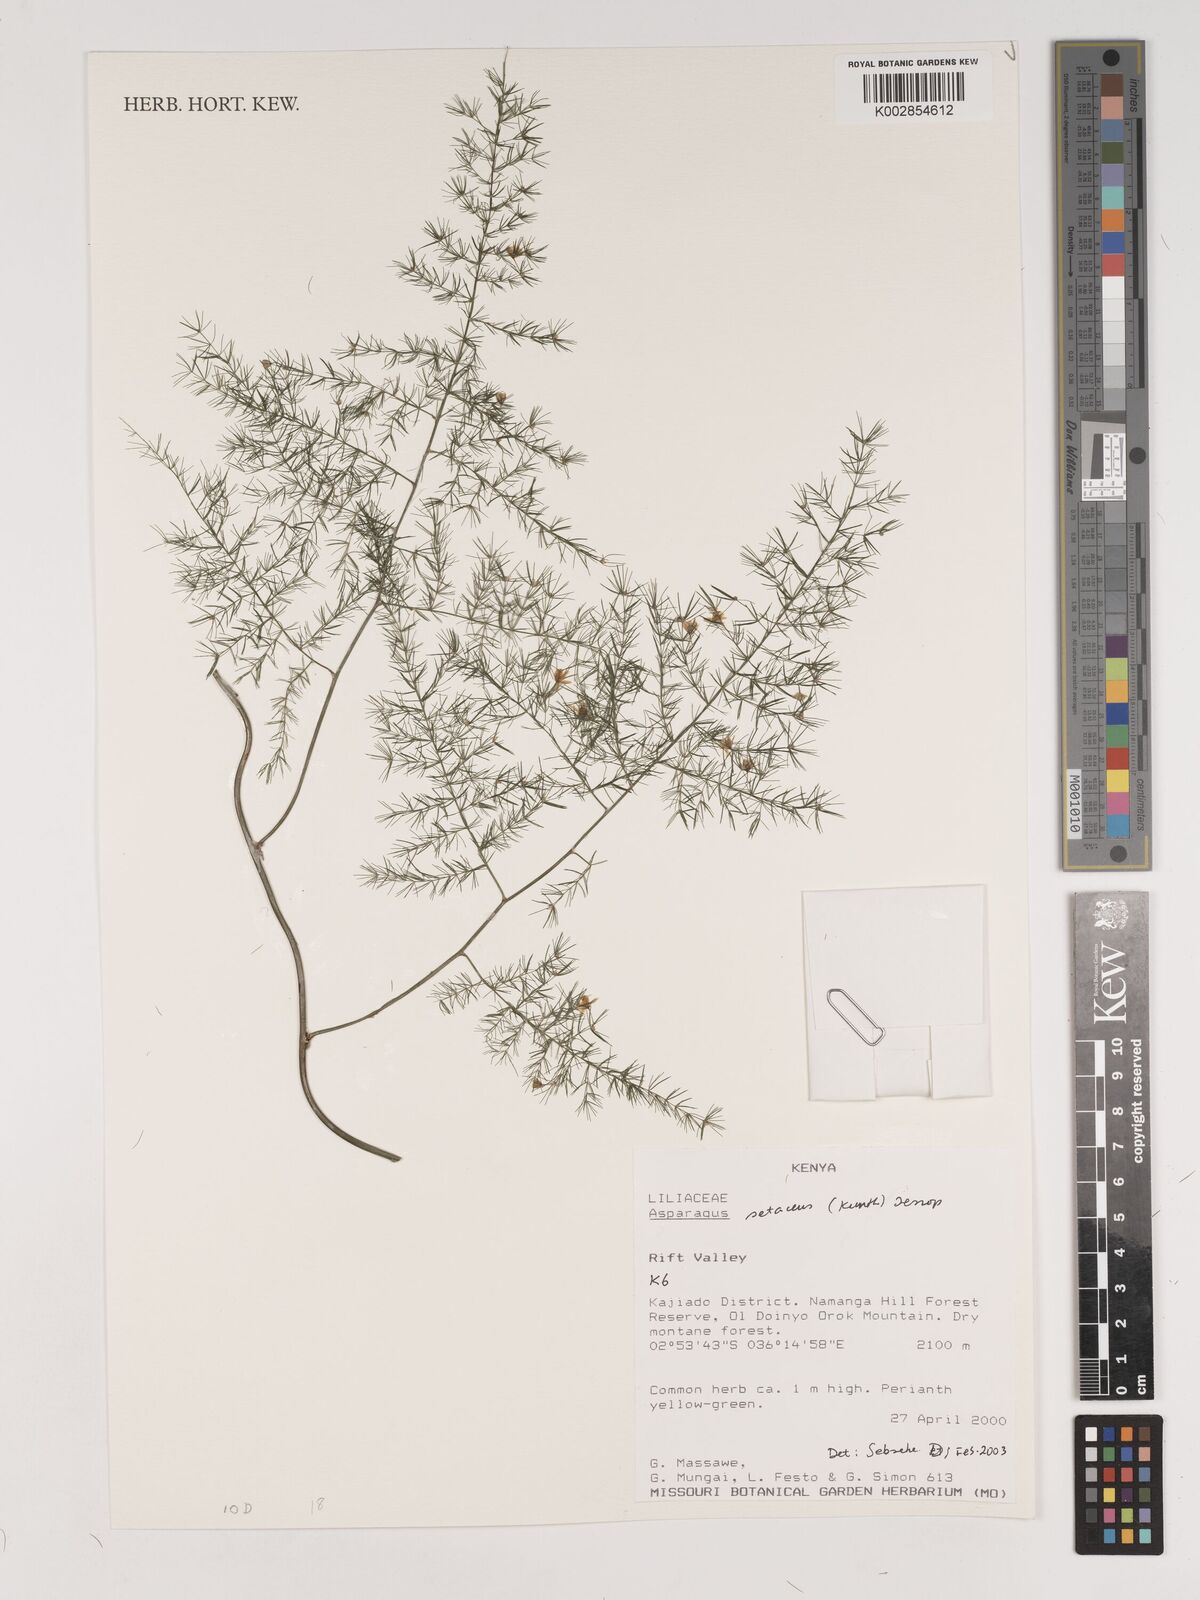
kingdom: Plantae
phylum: Tracheophyta
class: Liliopsida
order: Asparagales
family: Asparagaceae
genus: Asparagus
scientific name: Asparagus setaceus
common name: Common asparagus fern
